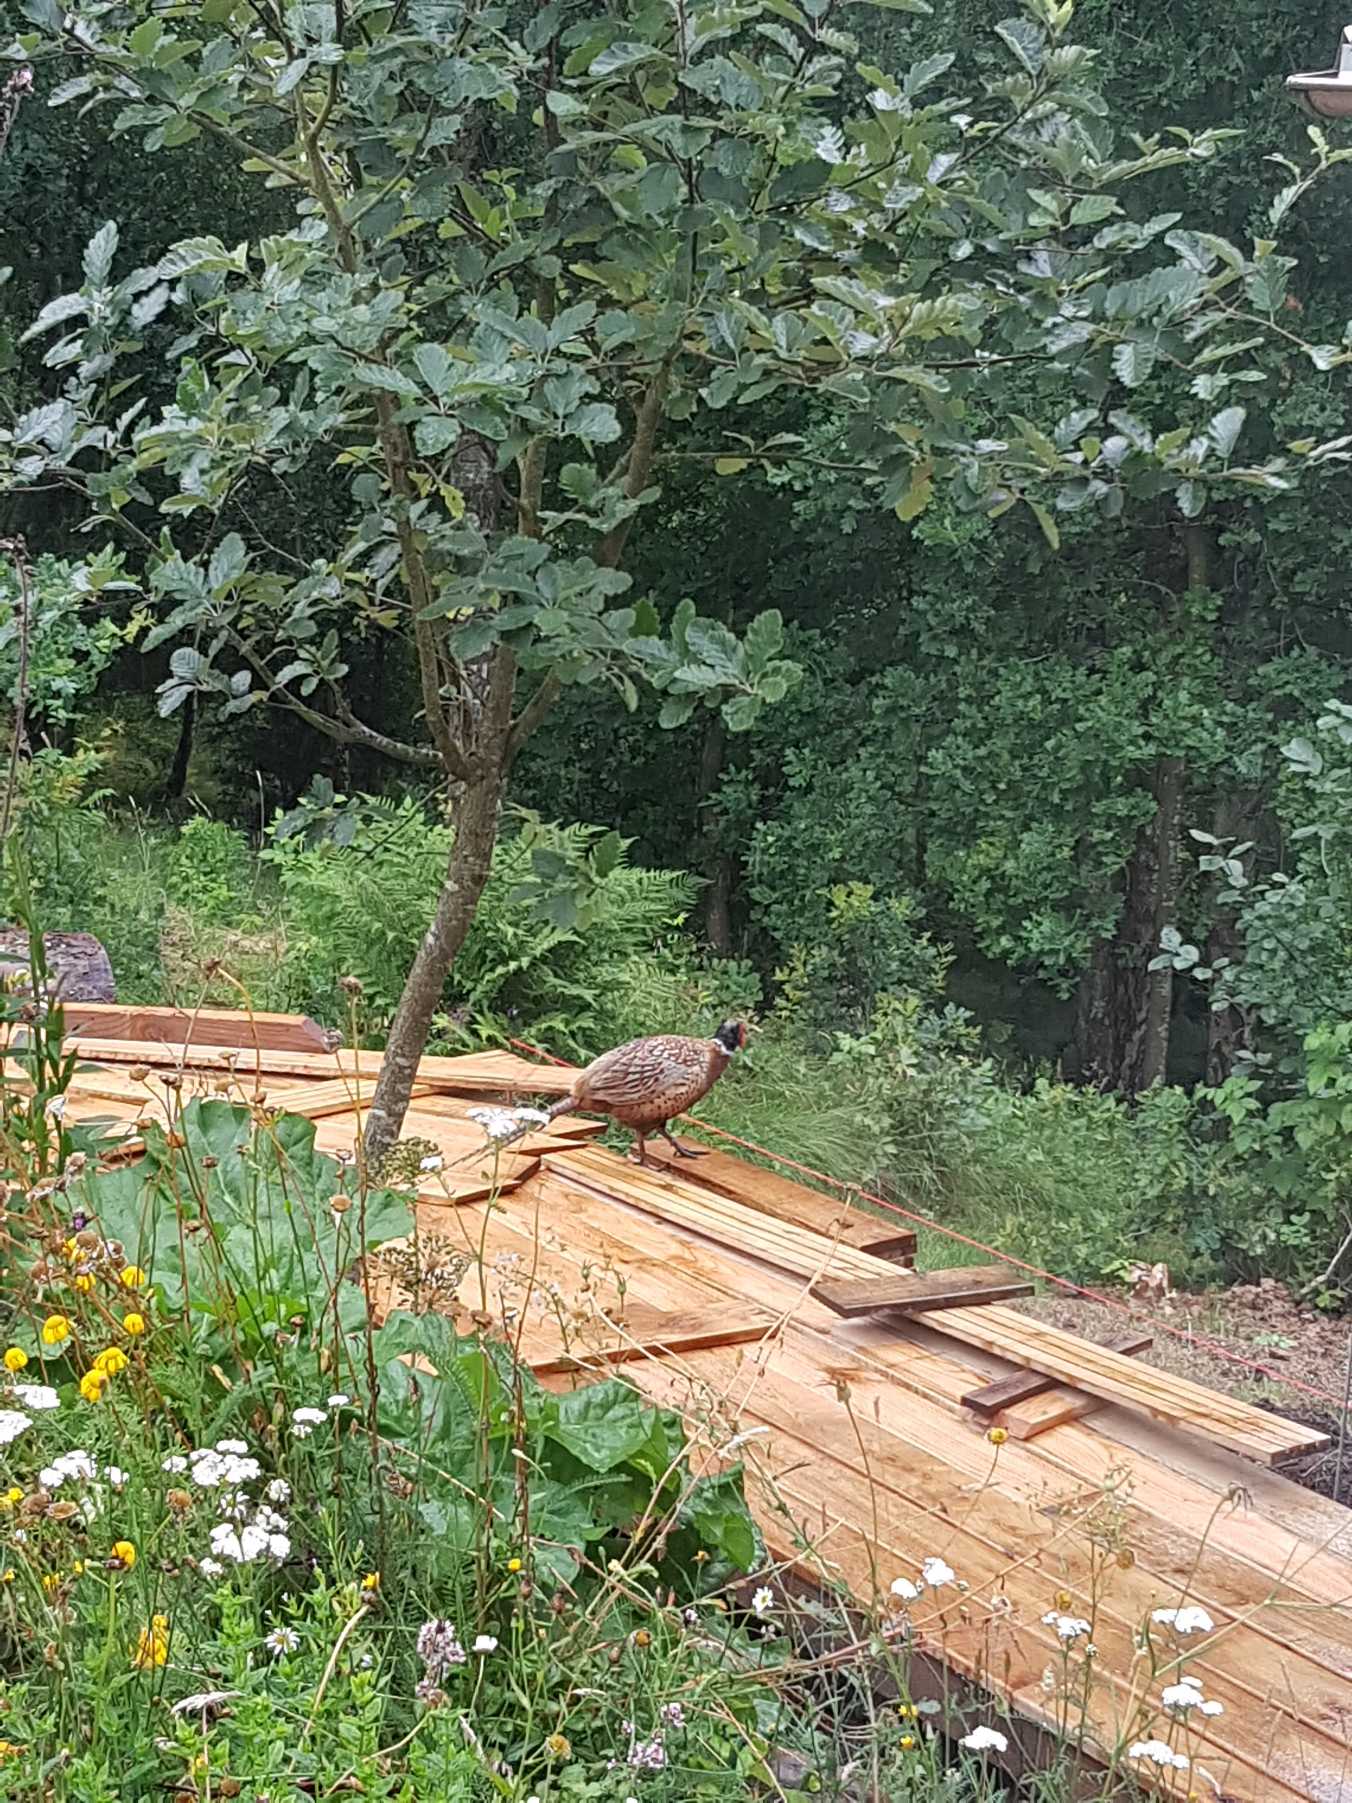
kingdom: Animalia
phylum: Chordata
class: Aves
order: Galliformes
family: Phasianidae
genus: Phasianus
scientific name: Phasianus colchicus
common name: Fasan
